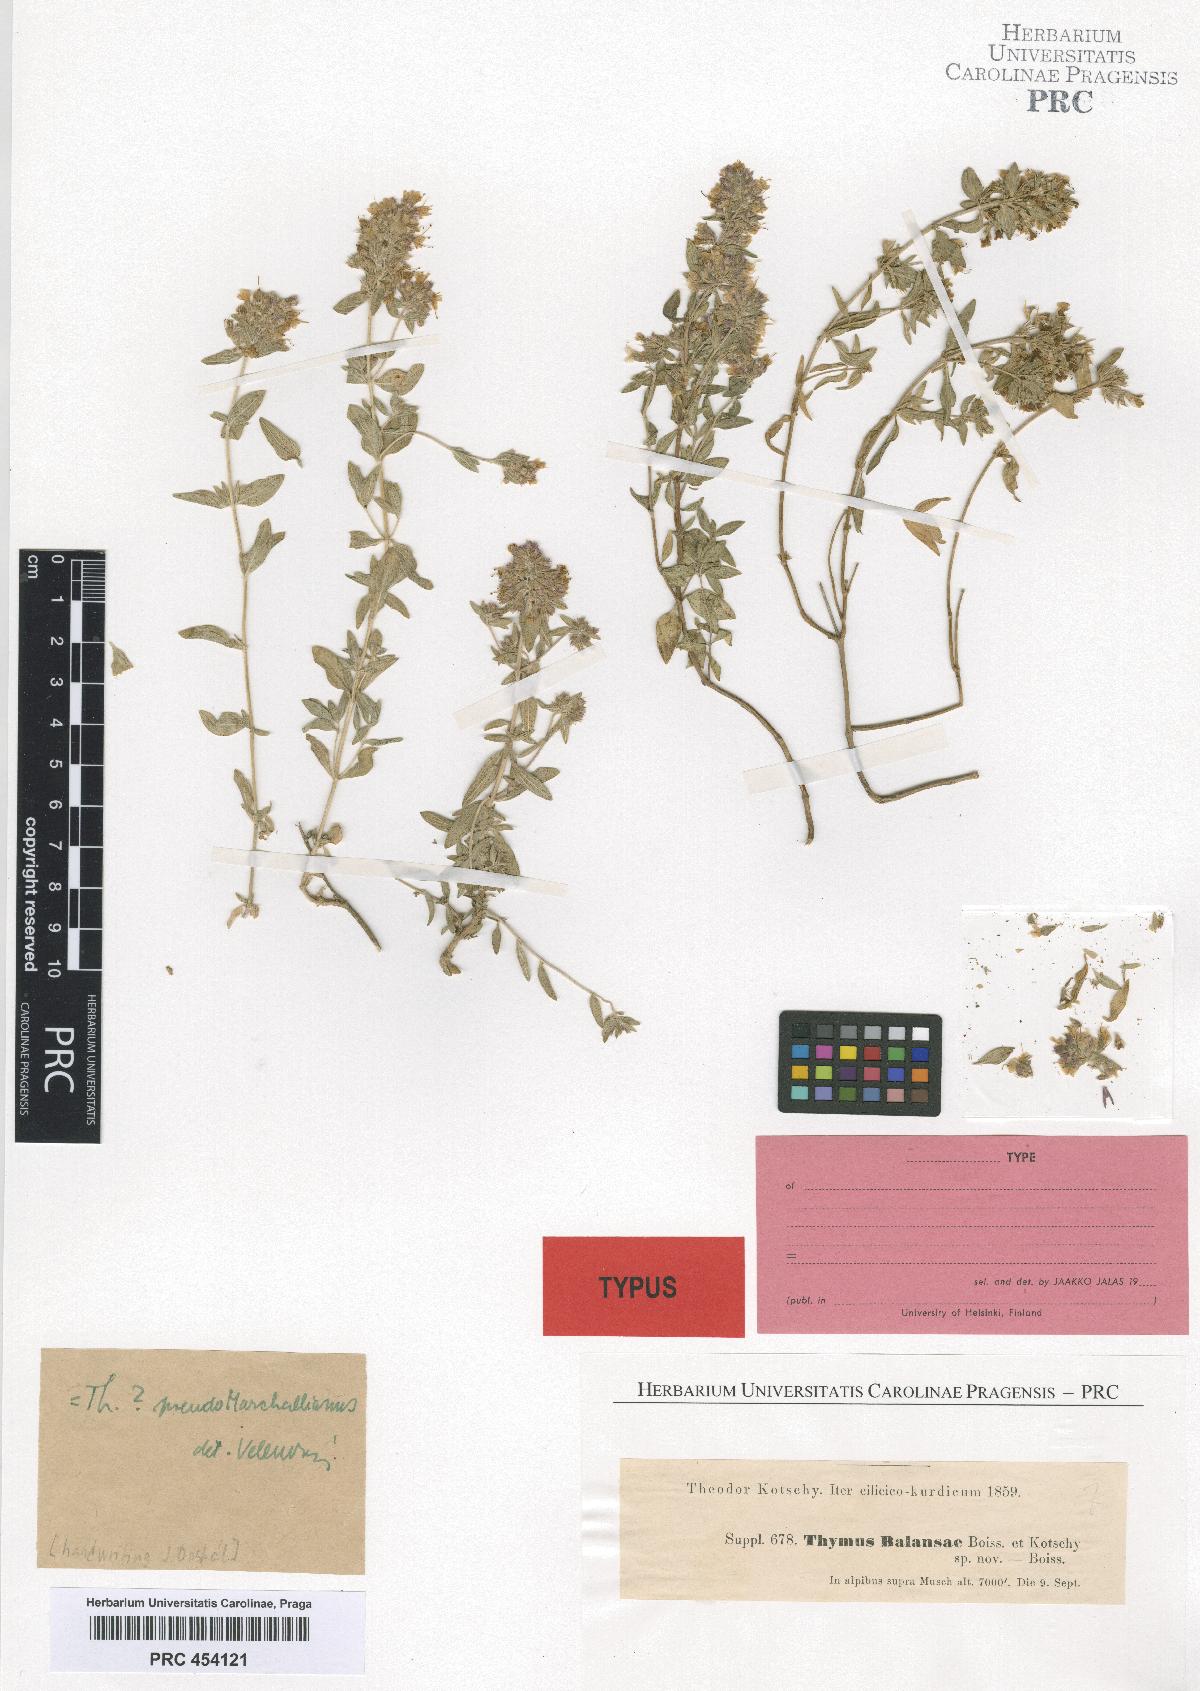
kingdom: Plantae
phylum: Tracheophyta
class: Magnoliopsida
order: Lamiales
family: Lamiaceae
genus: Thymus
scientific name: Thymus fallax
